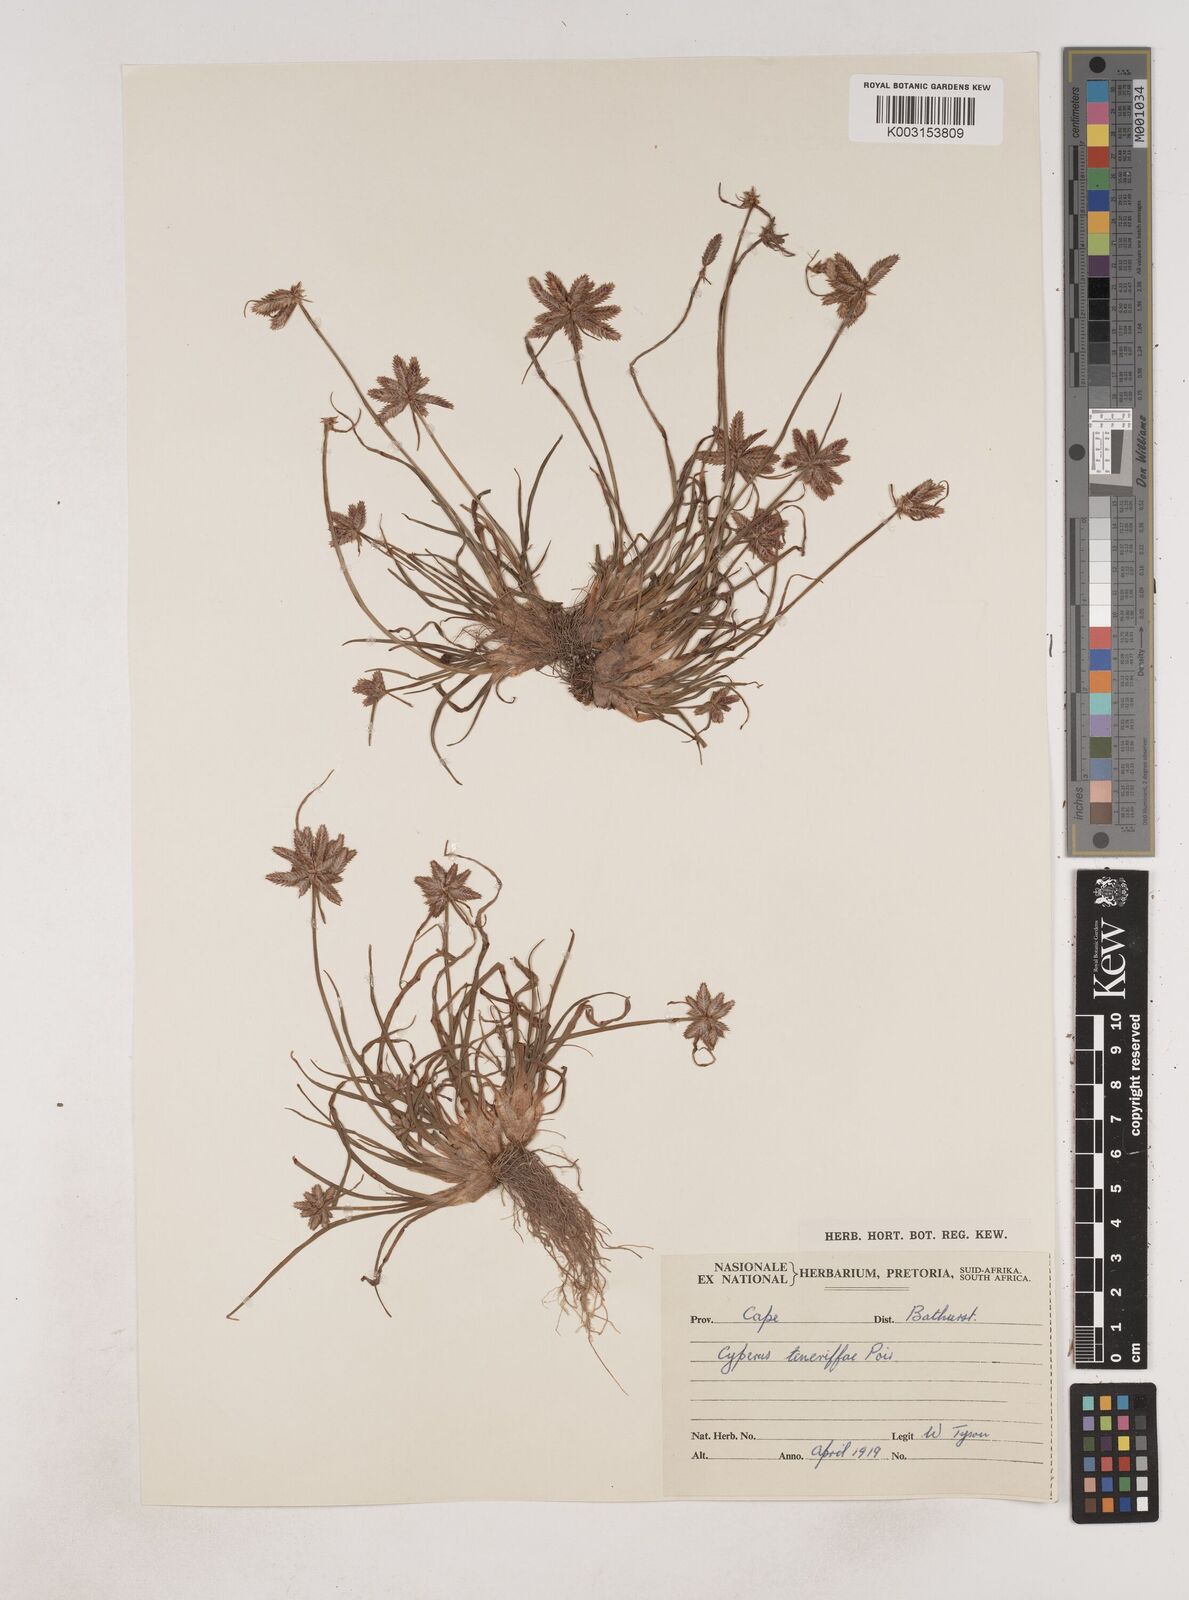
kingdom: Plantae
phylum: Tracheophyta
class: Liliopsida
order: Poales
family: Cyperaceae
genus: Cyperus
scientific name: Cyperus rubicundus
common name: Coco-grass
